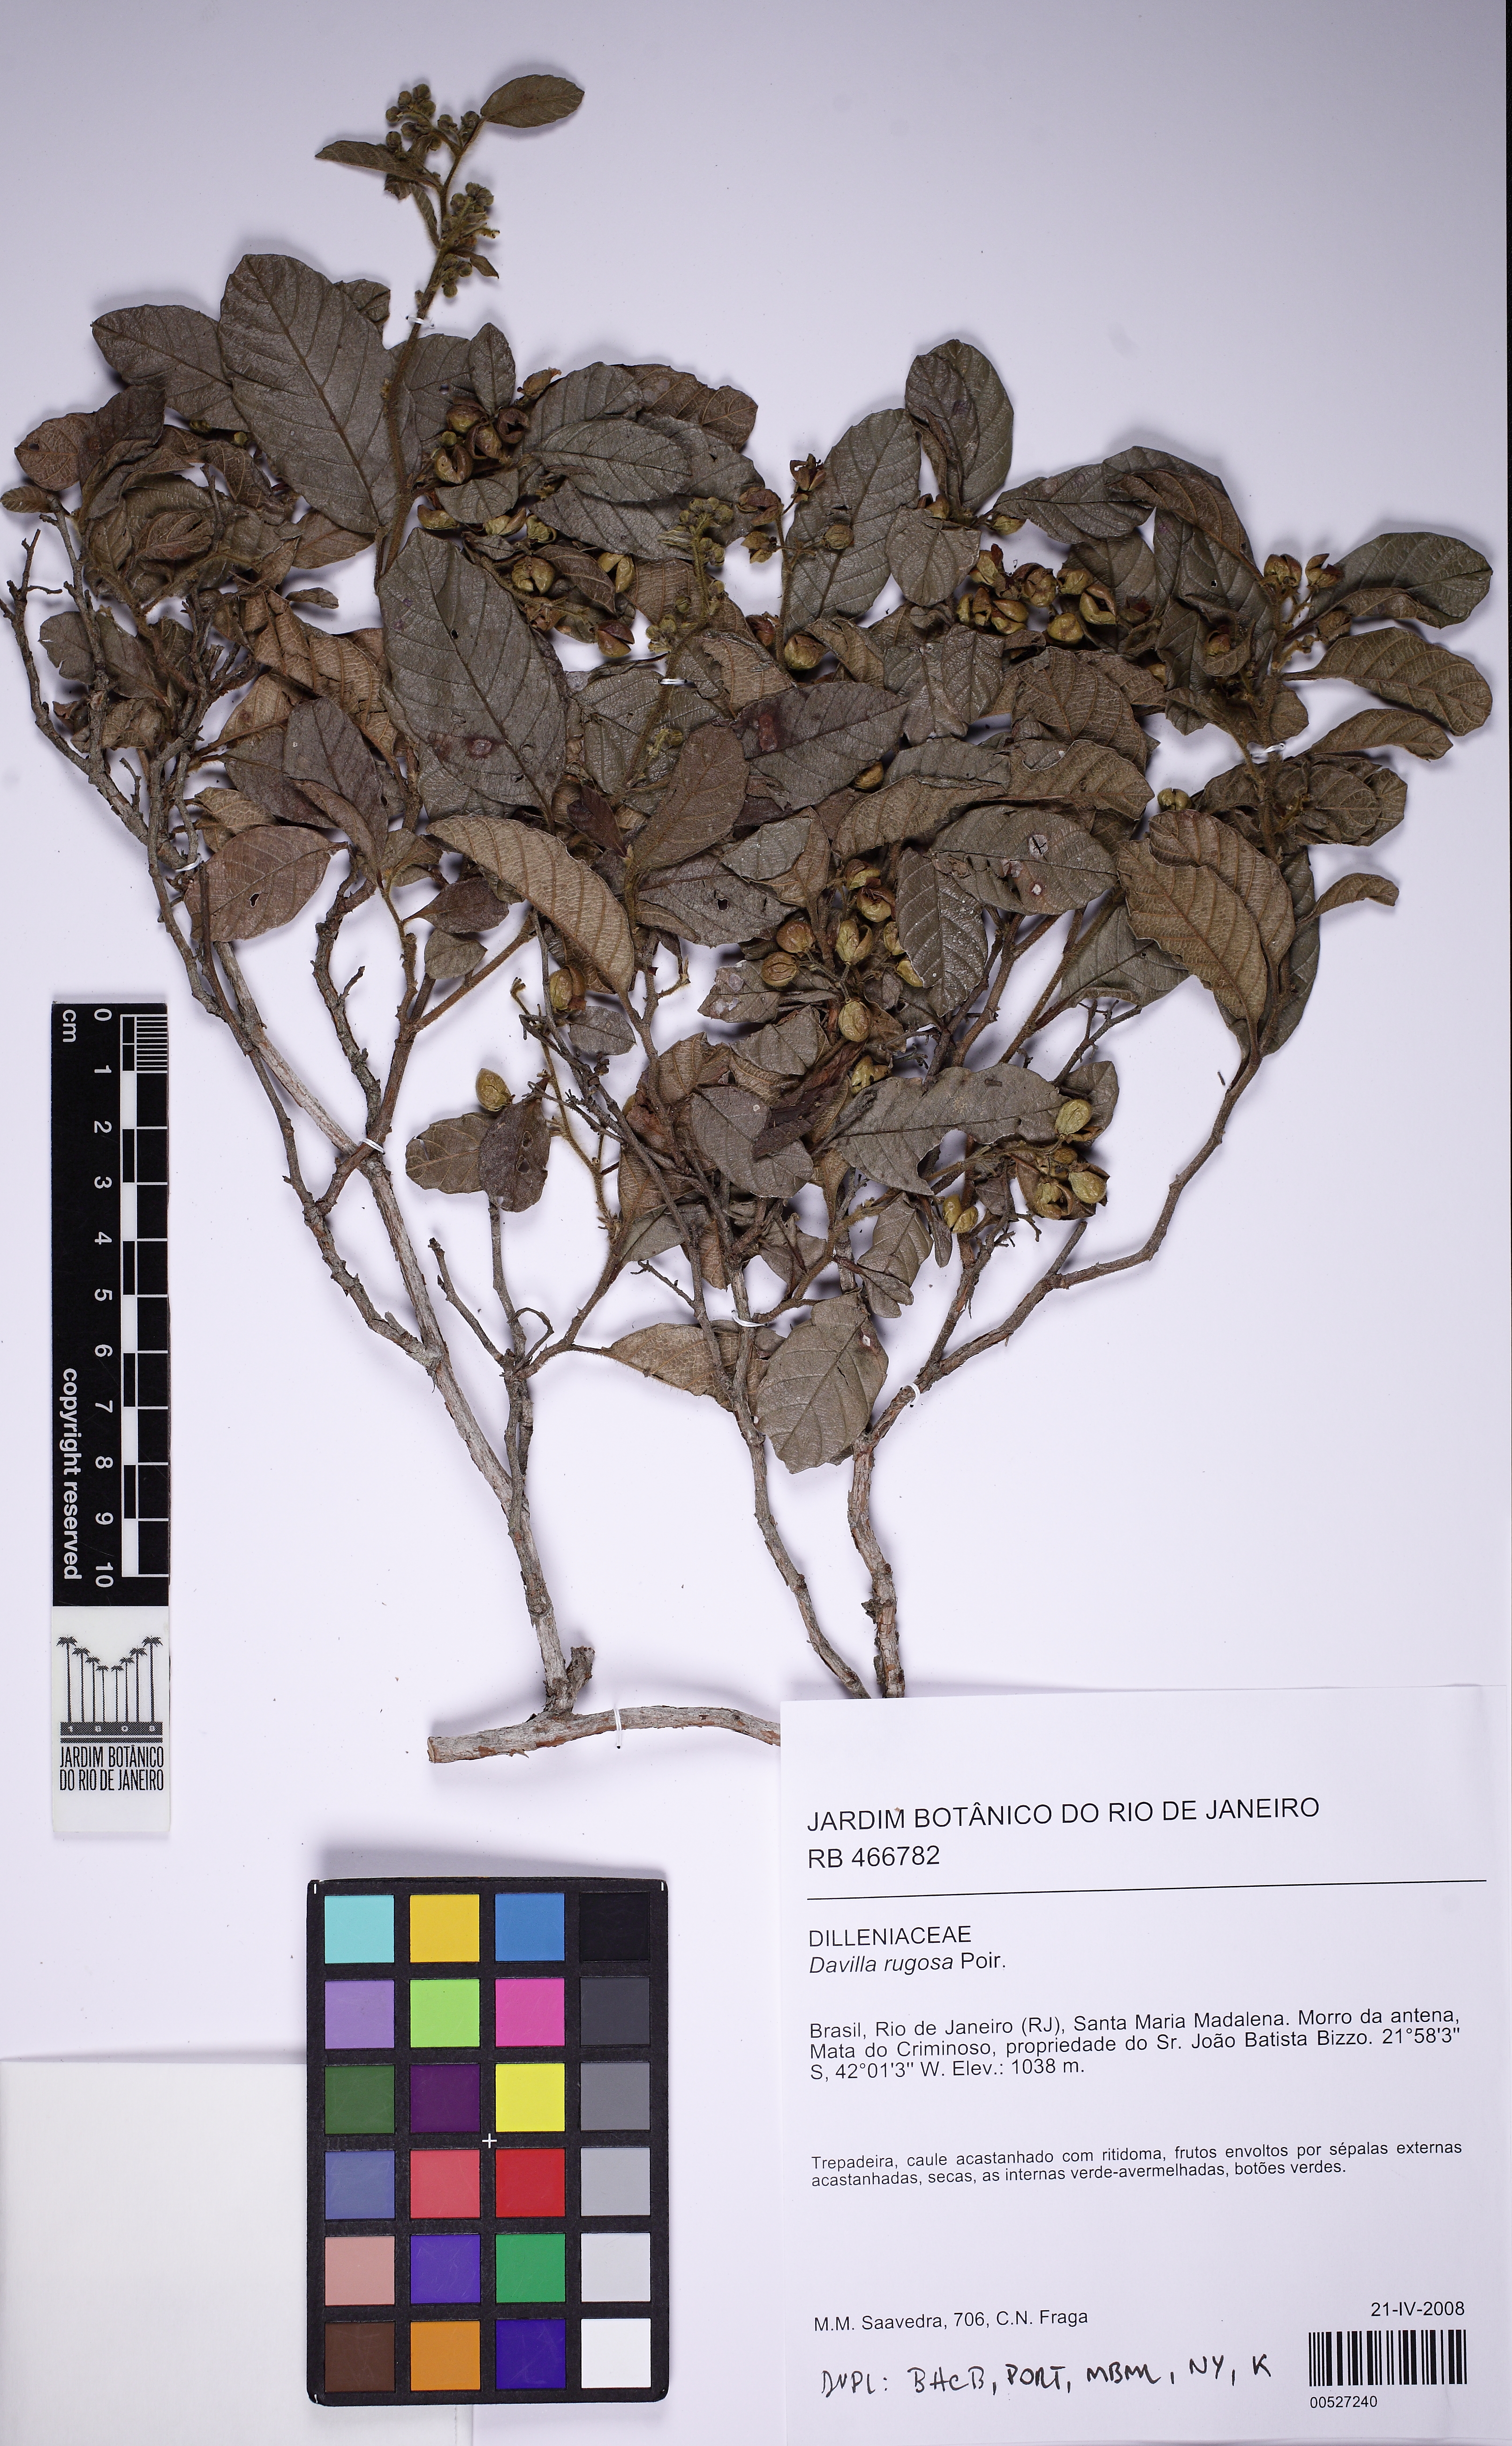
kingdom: Plantae
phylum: Tracheophyta
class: Magnoliopsida
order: Dilleniales
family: Dilleniaceae
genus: Davilla
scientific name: Davilla rugosa
